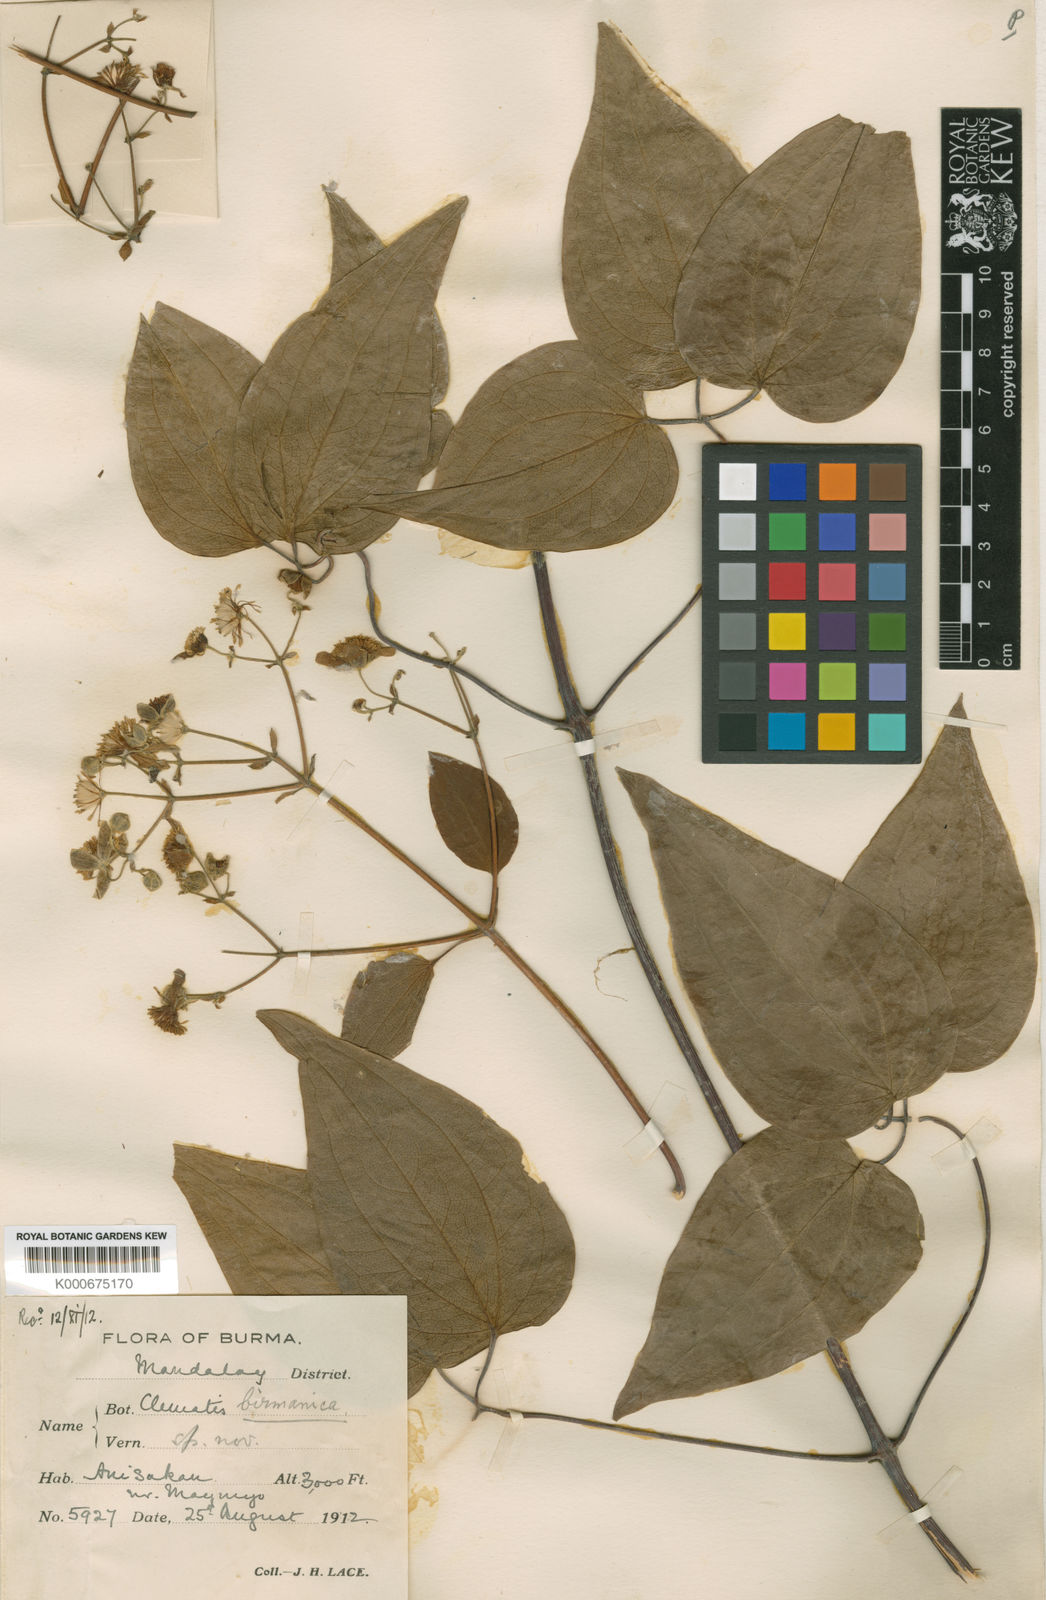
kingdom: Plantae
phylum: Tracheophyta
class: Magnoliopsida
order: Ranunculales
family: Ranunculaceae
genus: Clematis
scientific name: Clematis burmanica
